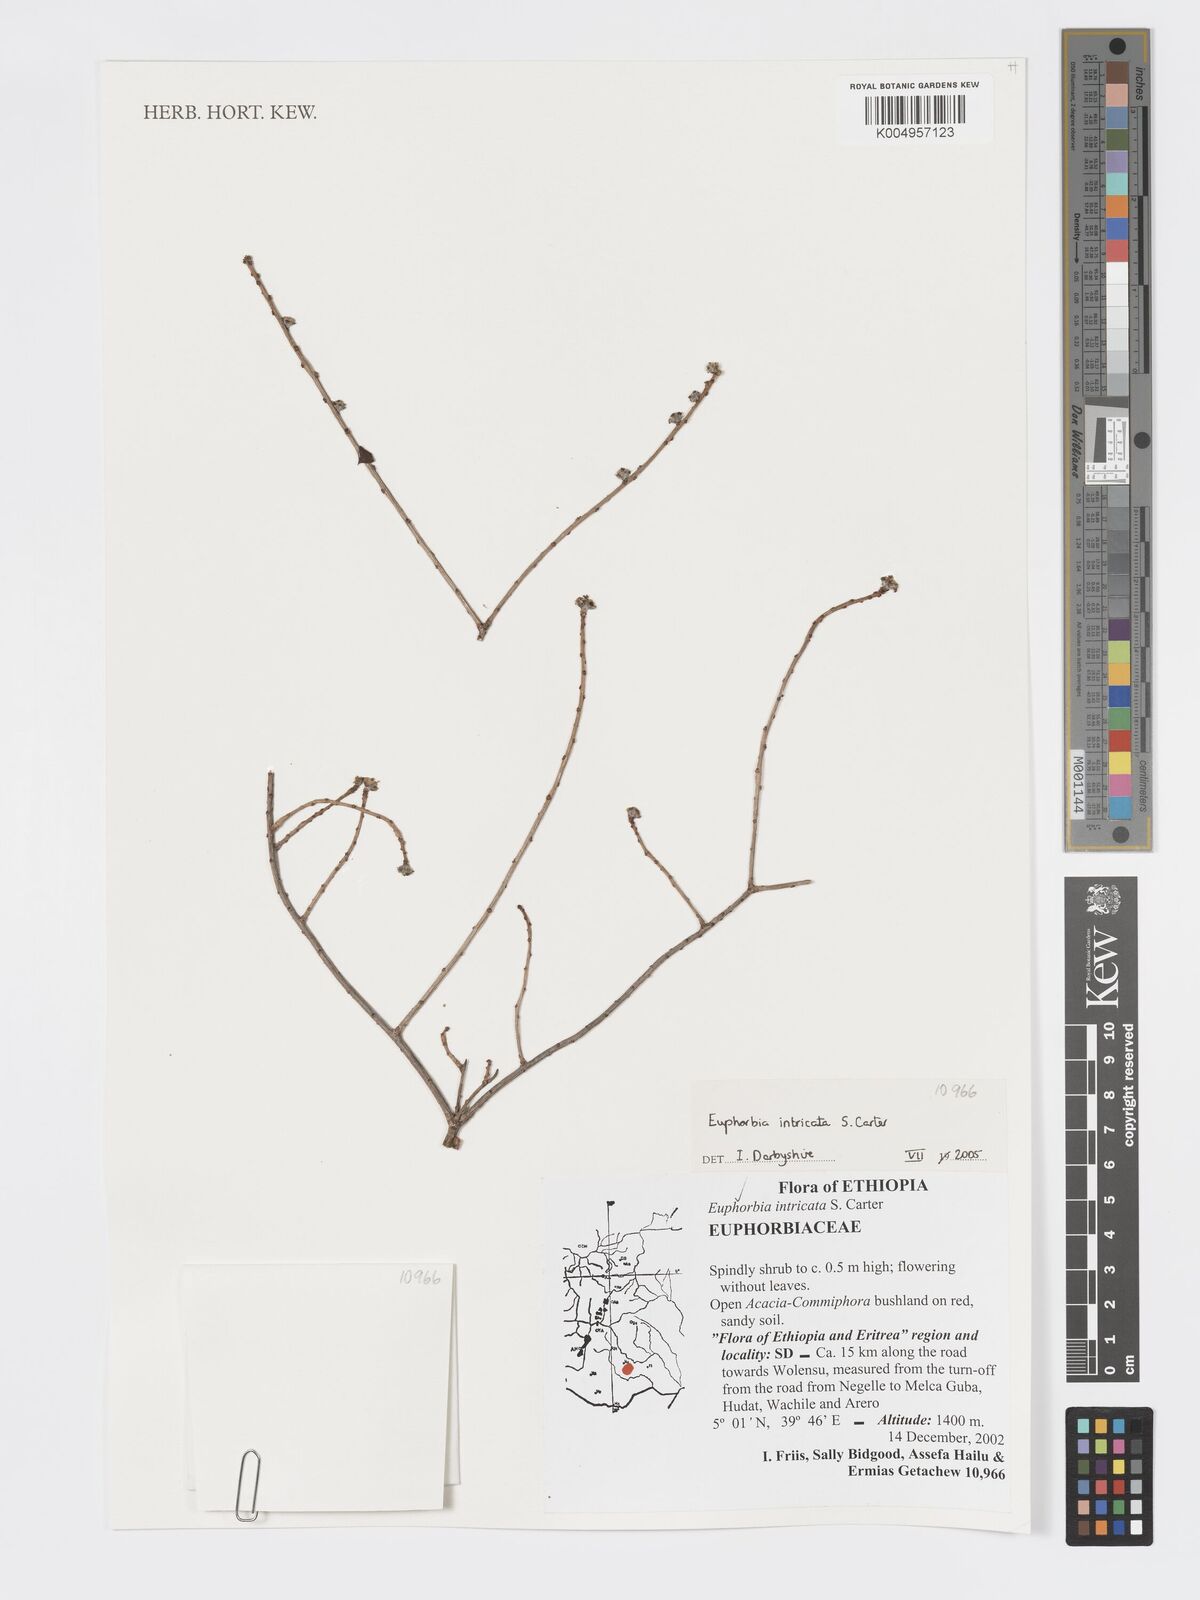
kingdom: Plantae
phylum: Tracheophyta
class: Magnoliopsida
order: Malpighiales
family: Euphorbiaceae
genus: Euphorbia
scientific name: Euphorbia intricata
